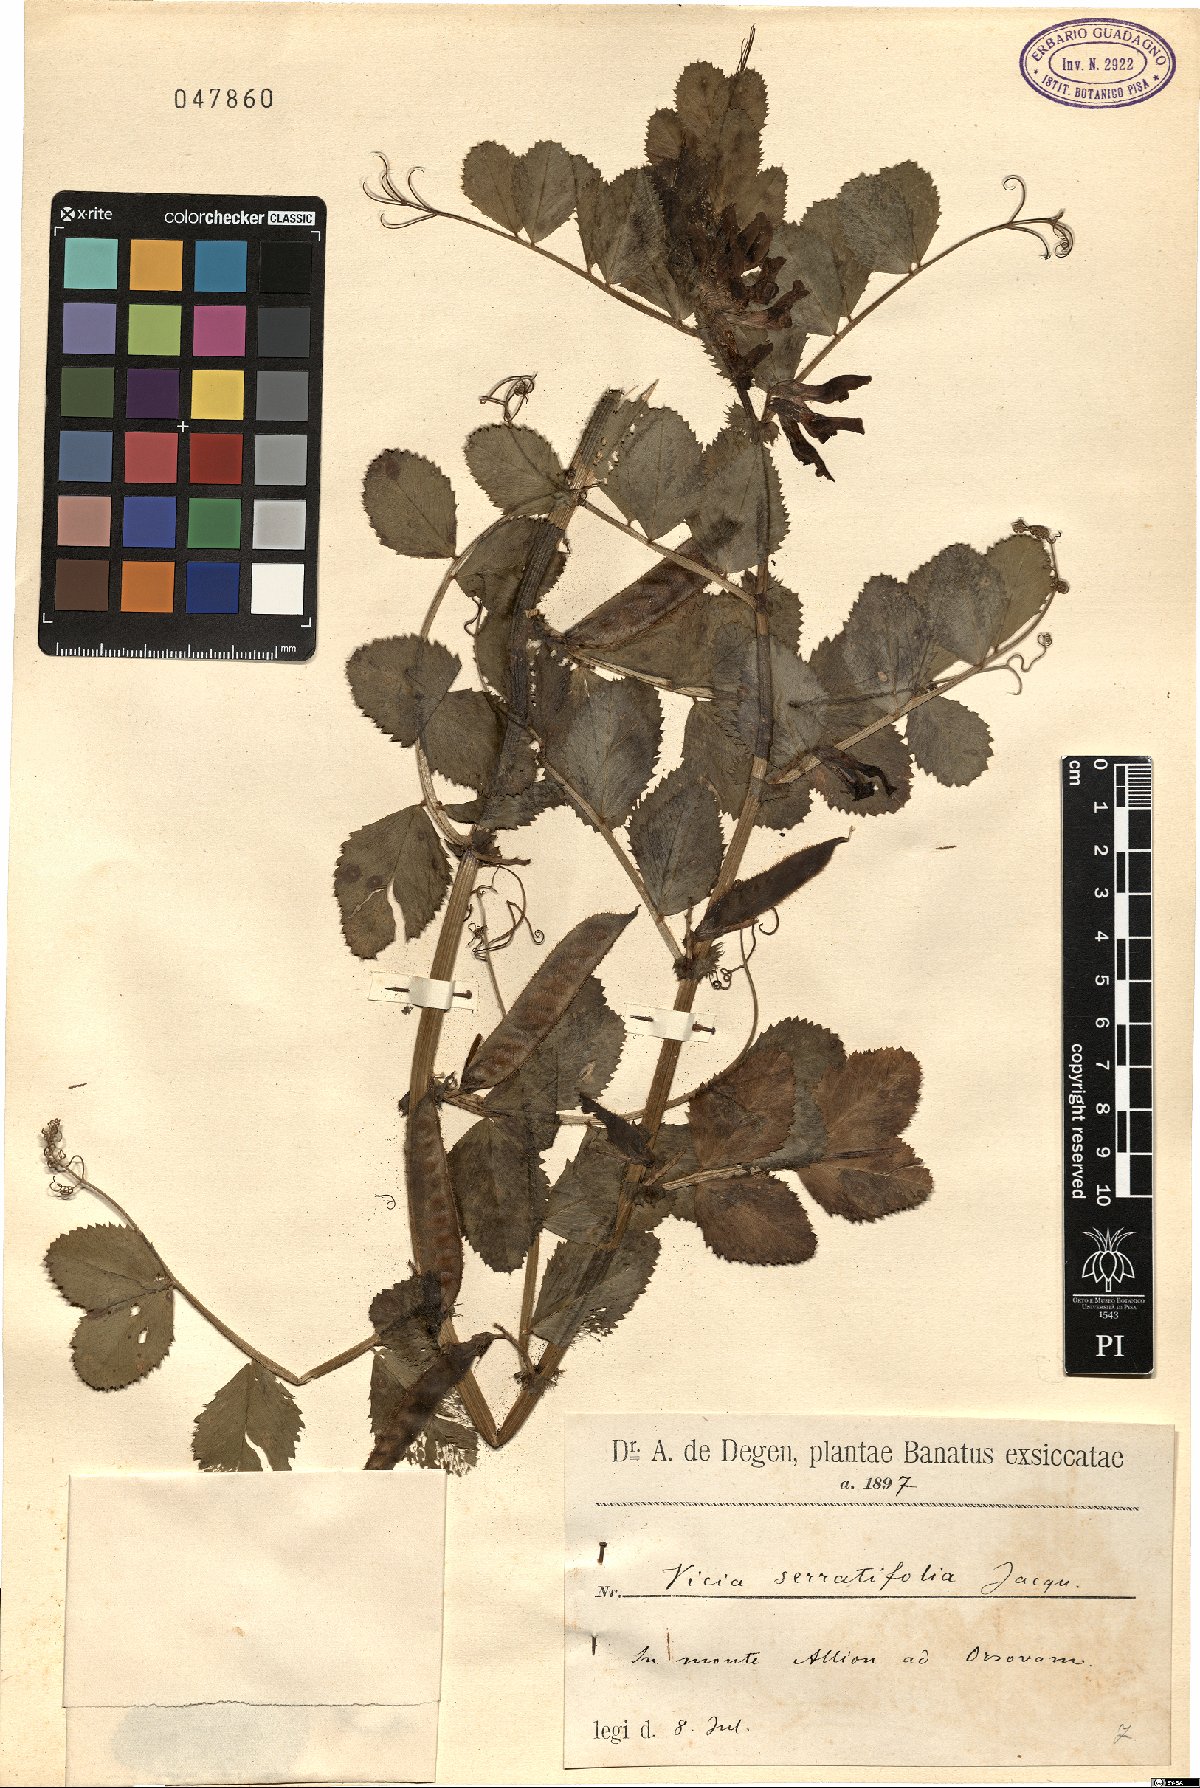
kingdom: Plantae
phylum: Tracheophyta
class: Magnoliopsida
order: Fabales
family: Fabaceae
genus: Vicia
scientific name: Vicia serratifolia
